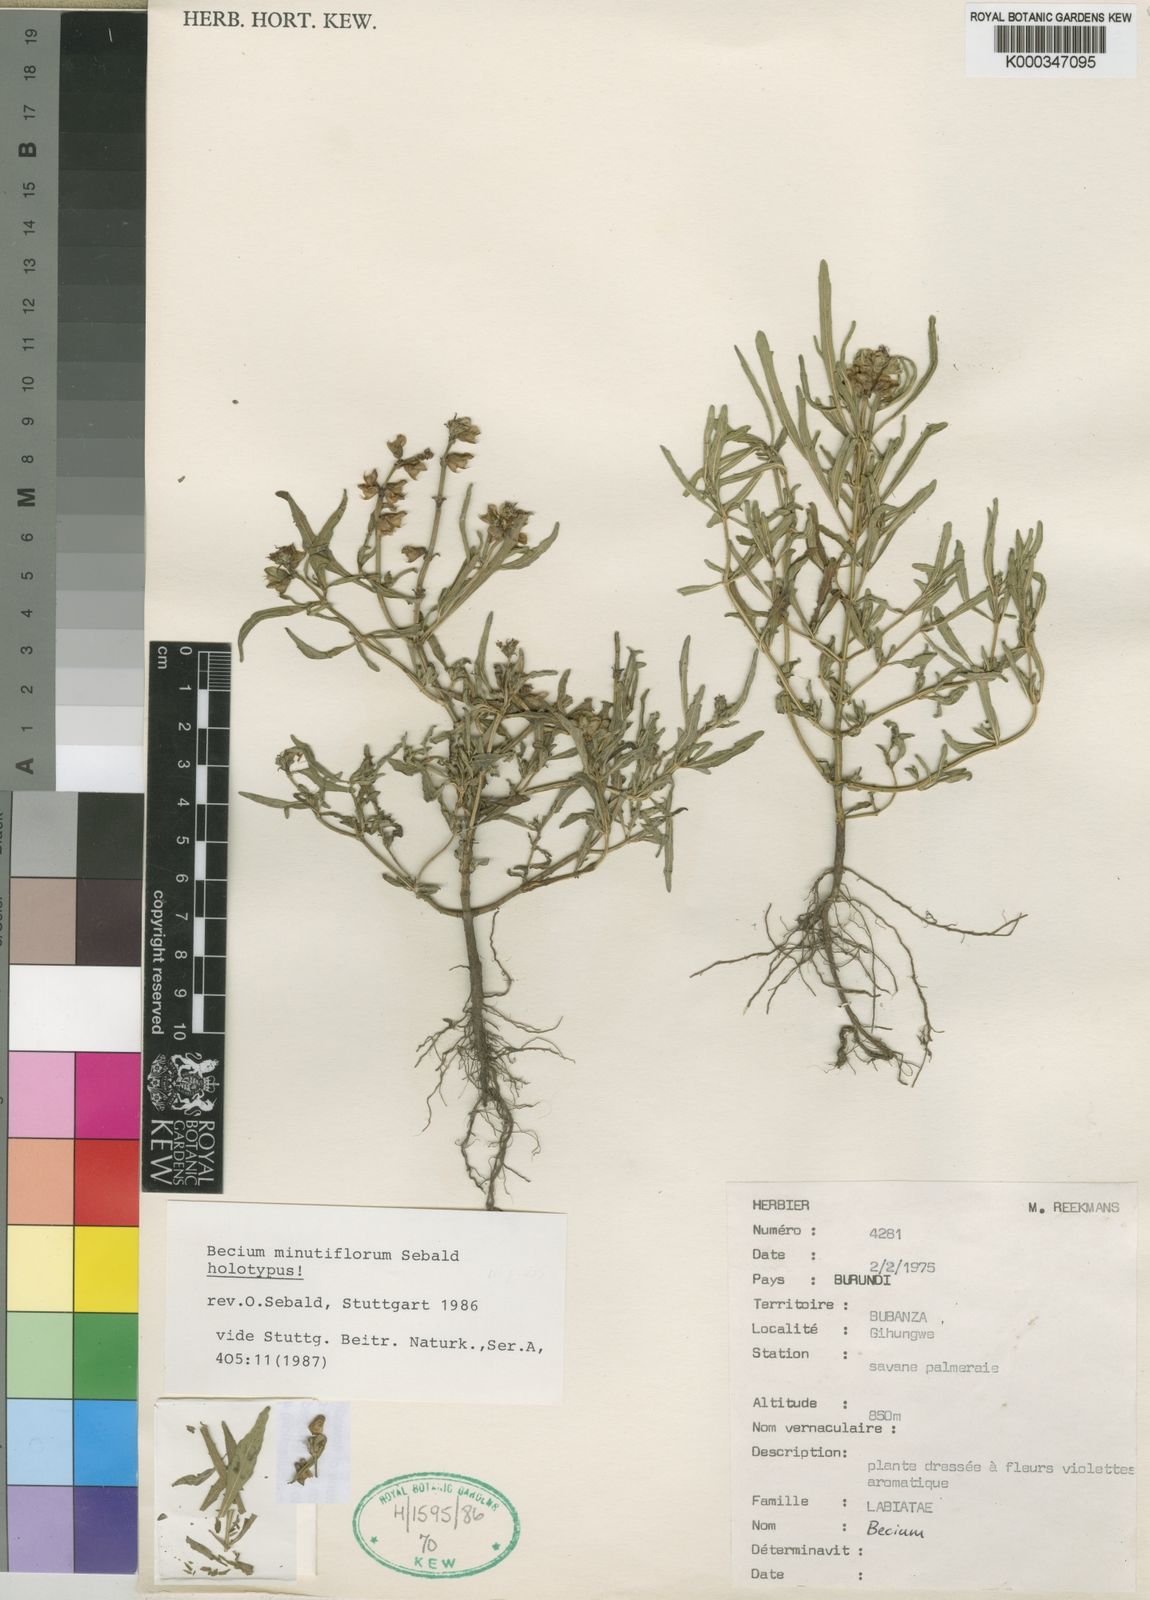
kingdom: Plantae
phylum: Tracheophyta
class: Magnoliopsida
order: Lamiales
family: Lamiaceae
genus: Ocimum
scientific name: Ocimum minutiflorum
